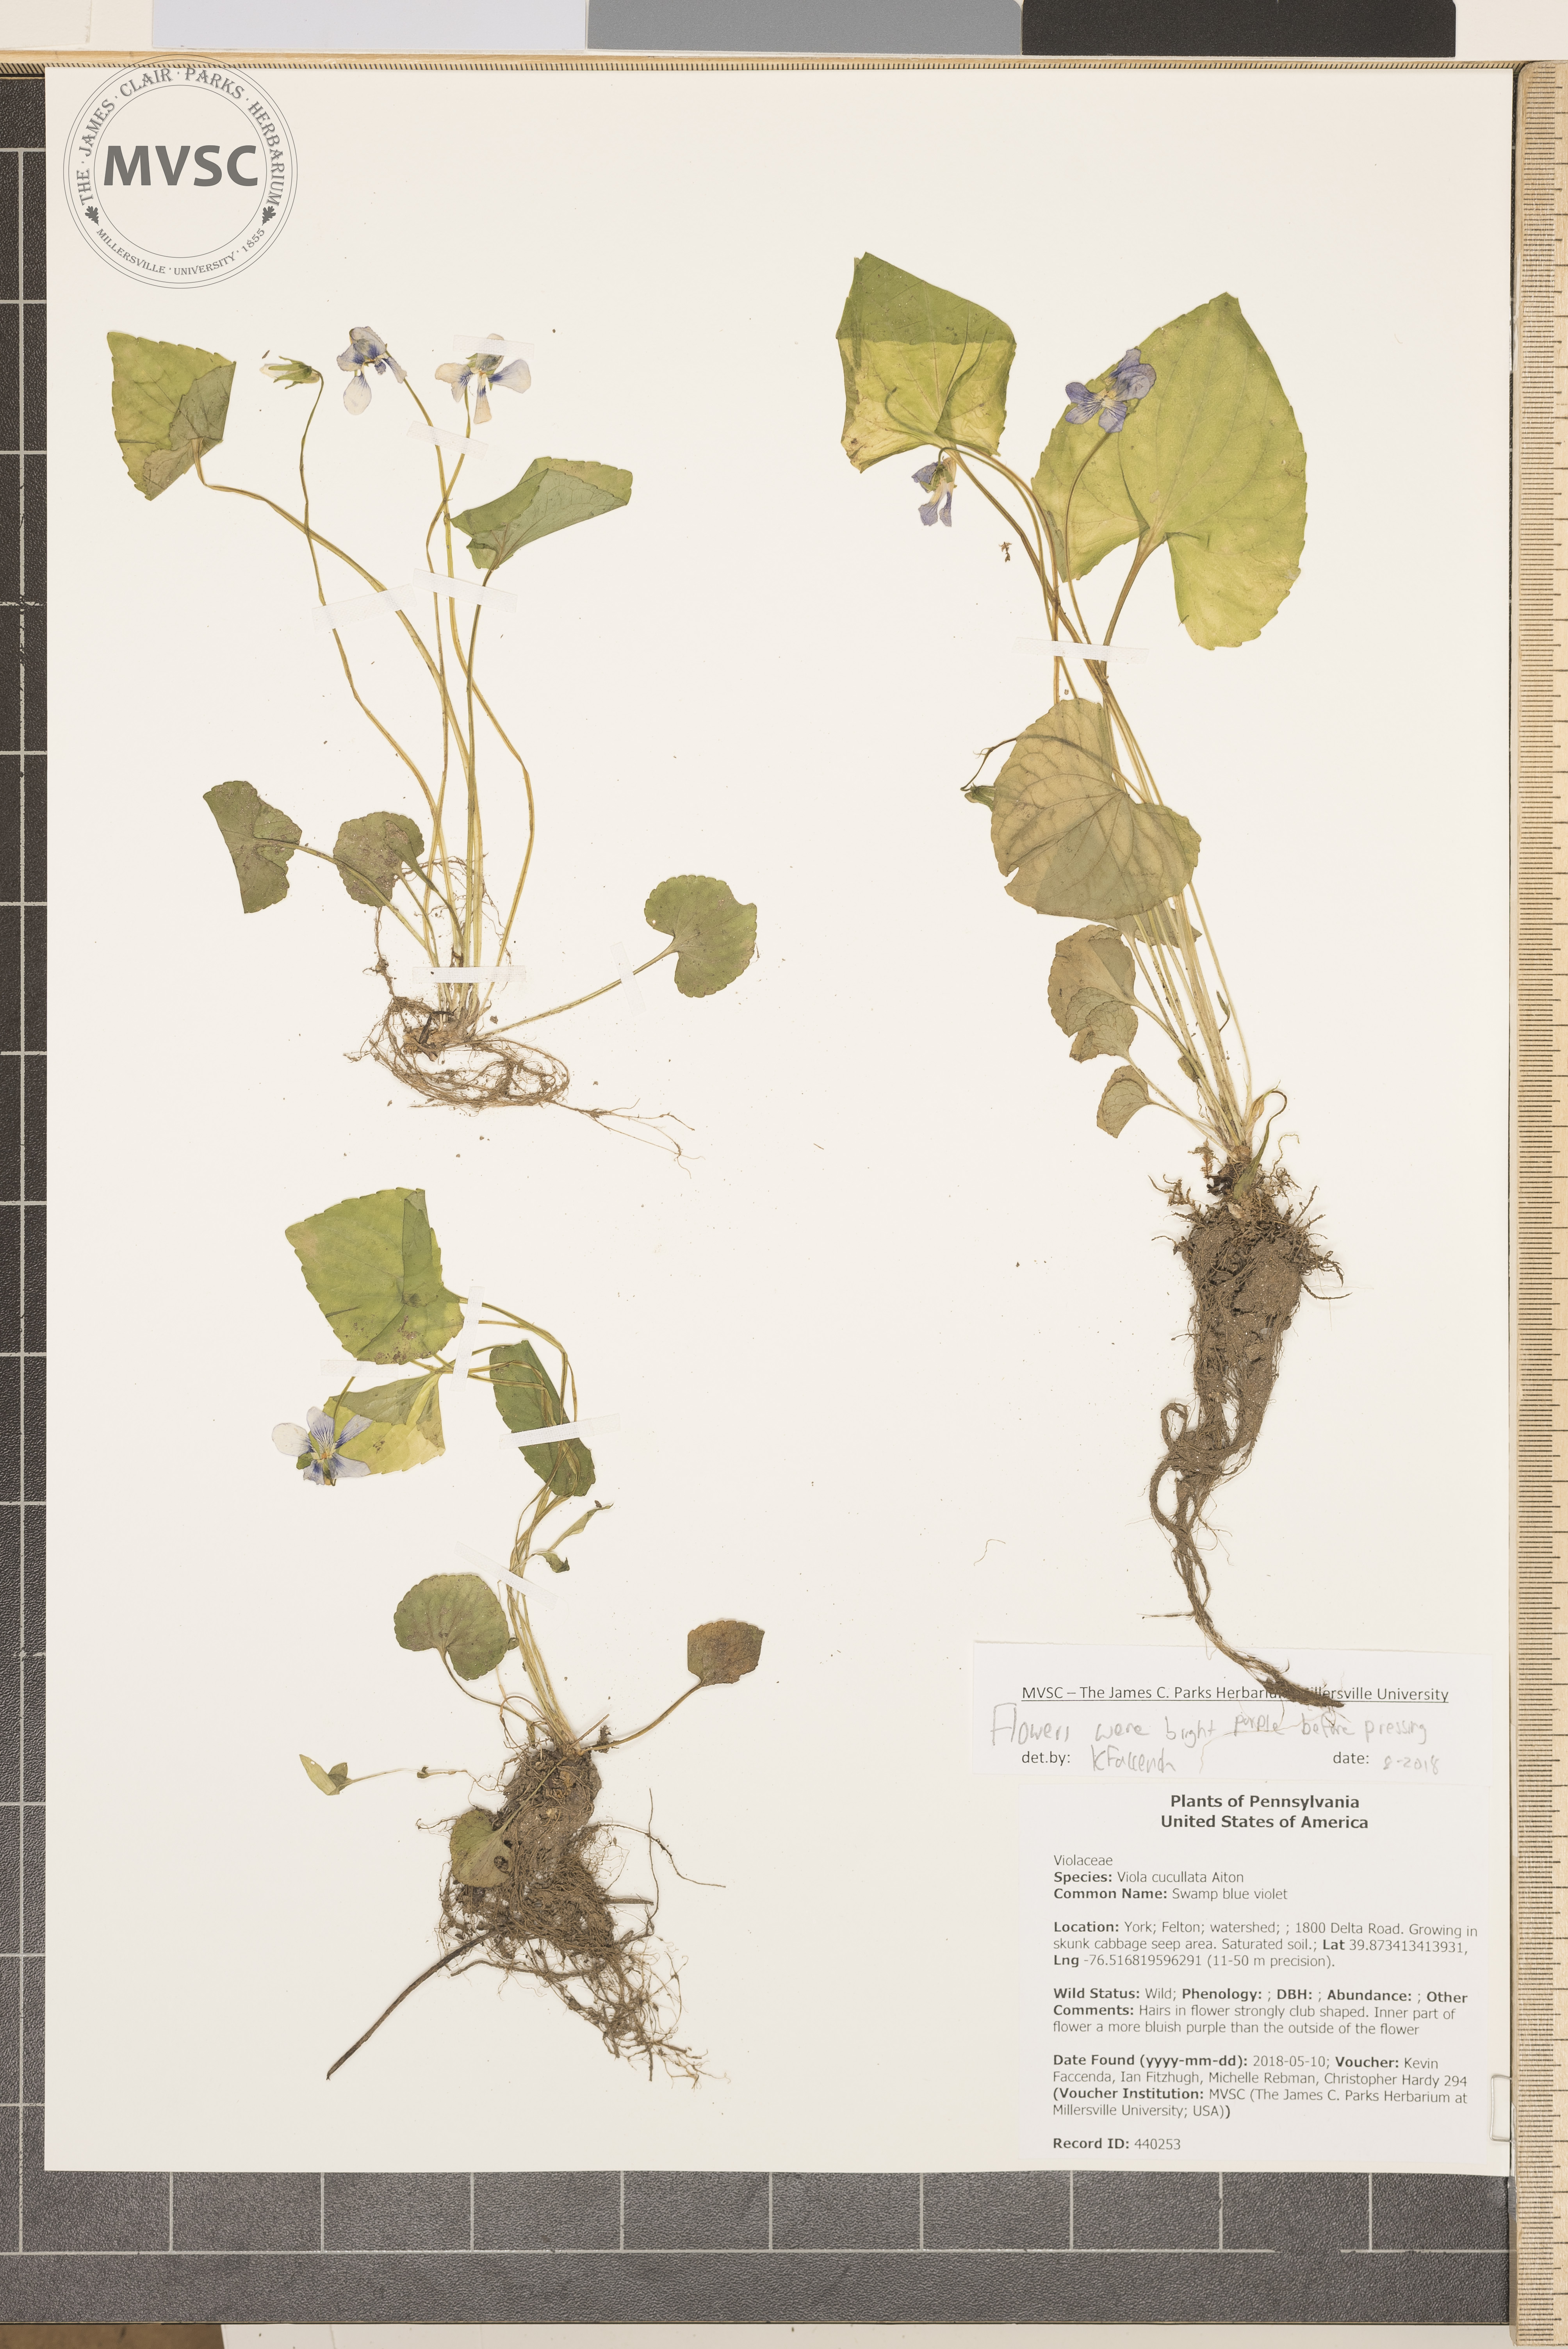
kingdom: Plantae
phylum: Tracheophyta
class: Magnoliopsida
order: Malpighiales
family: Violaceae
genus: Viola
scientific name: Viola cucullata
